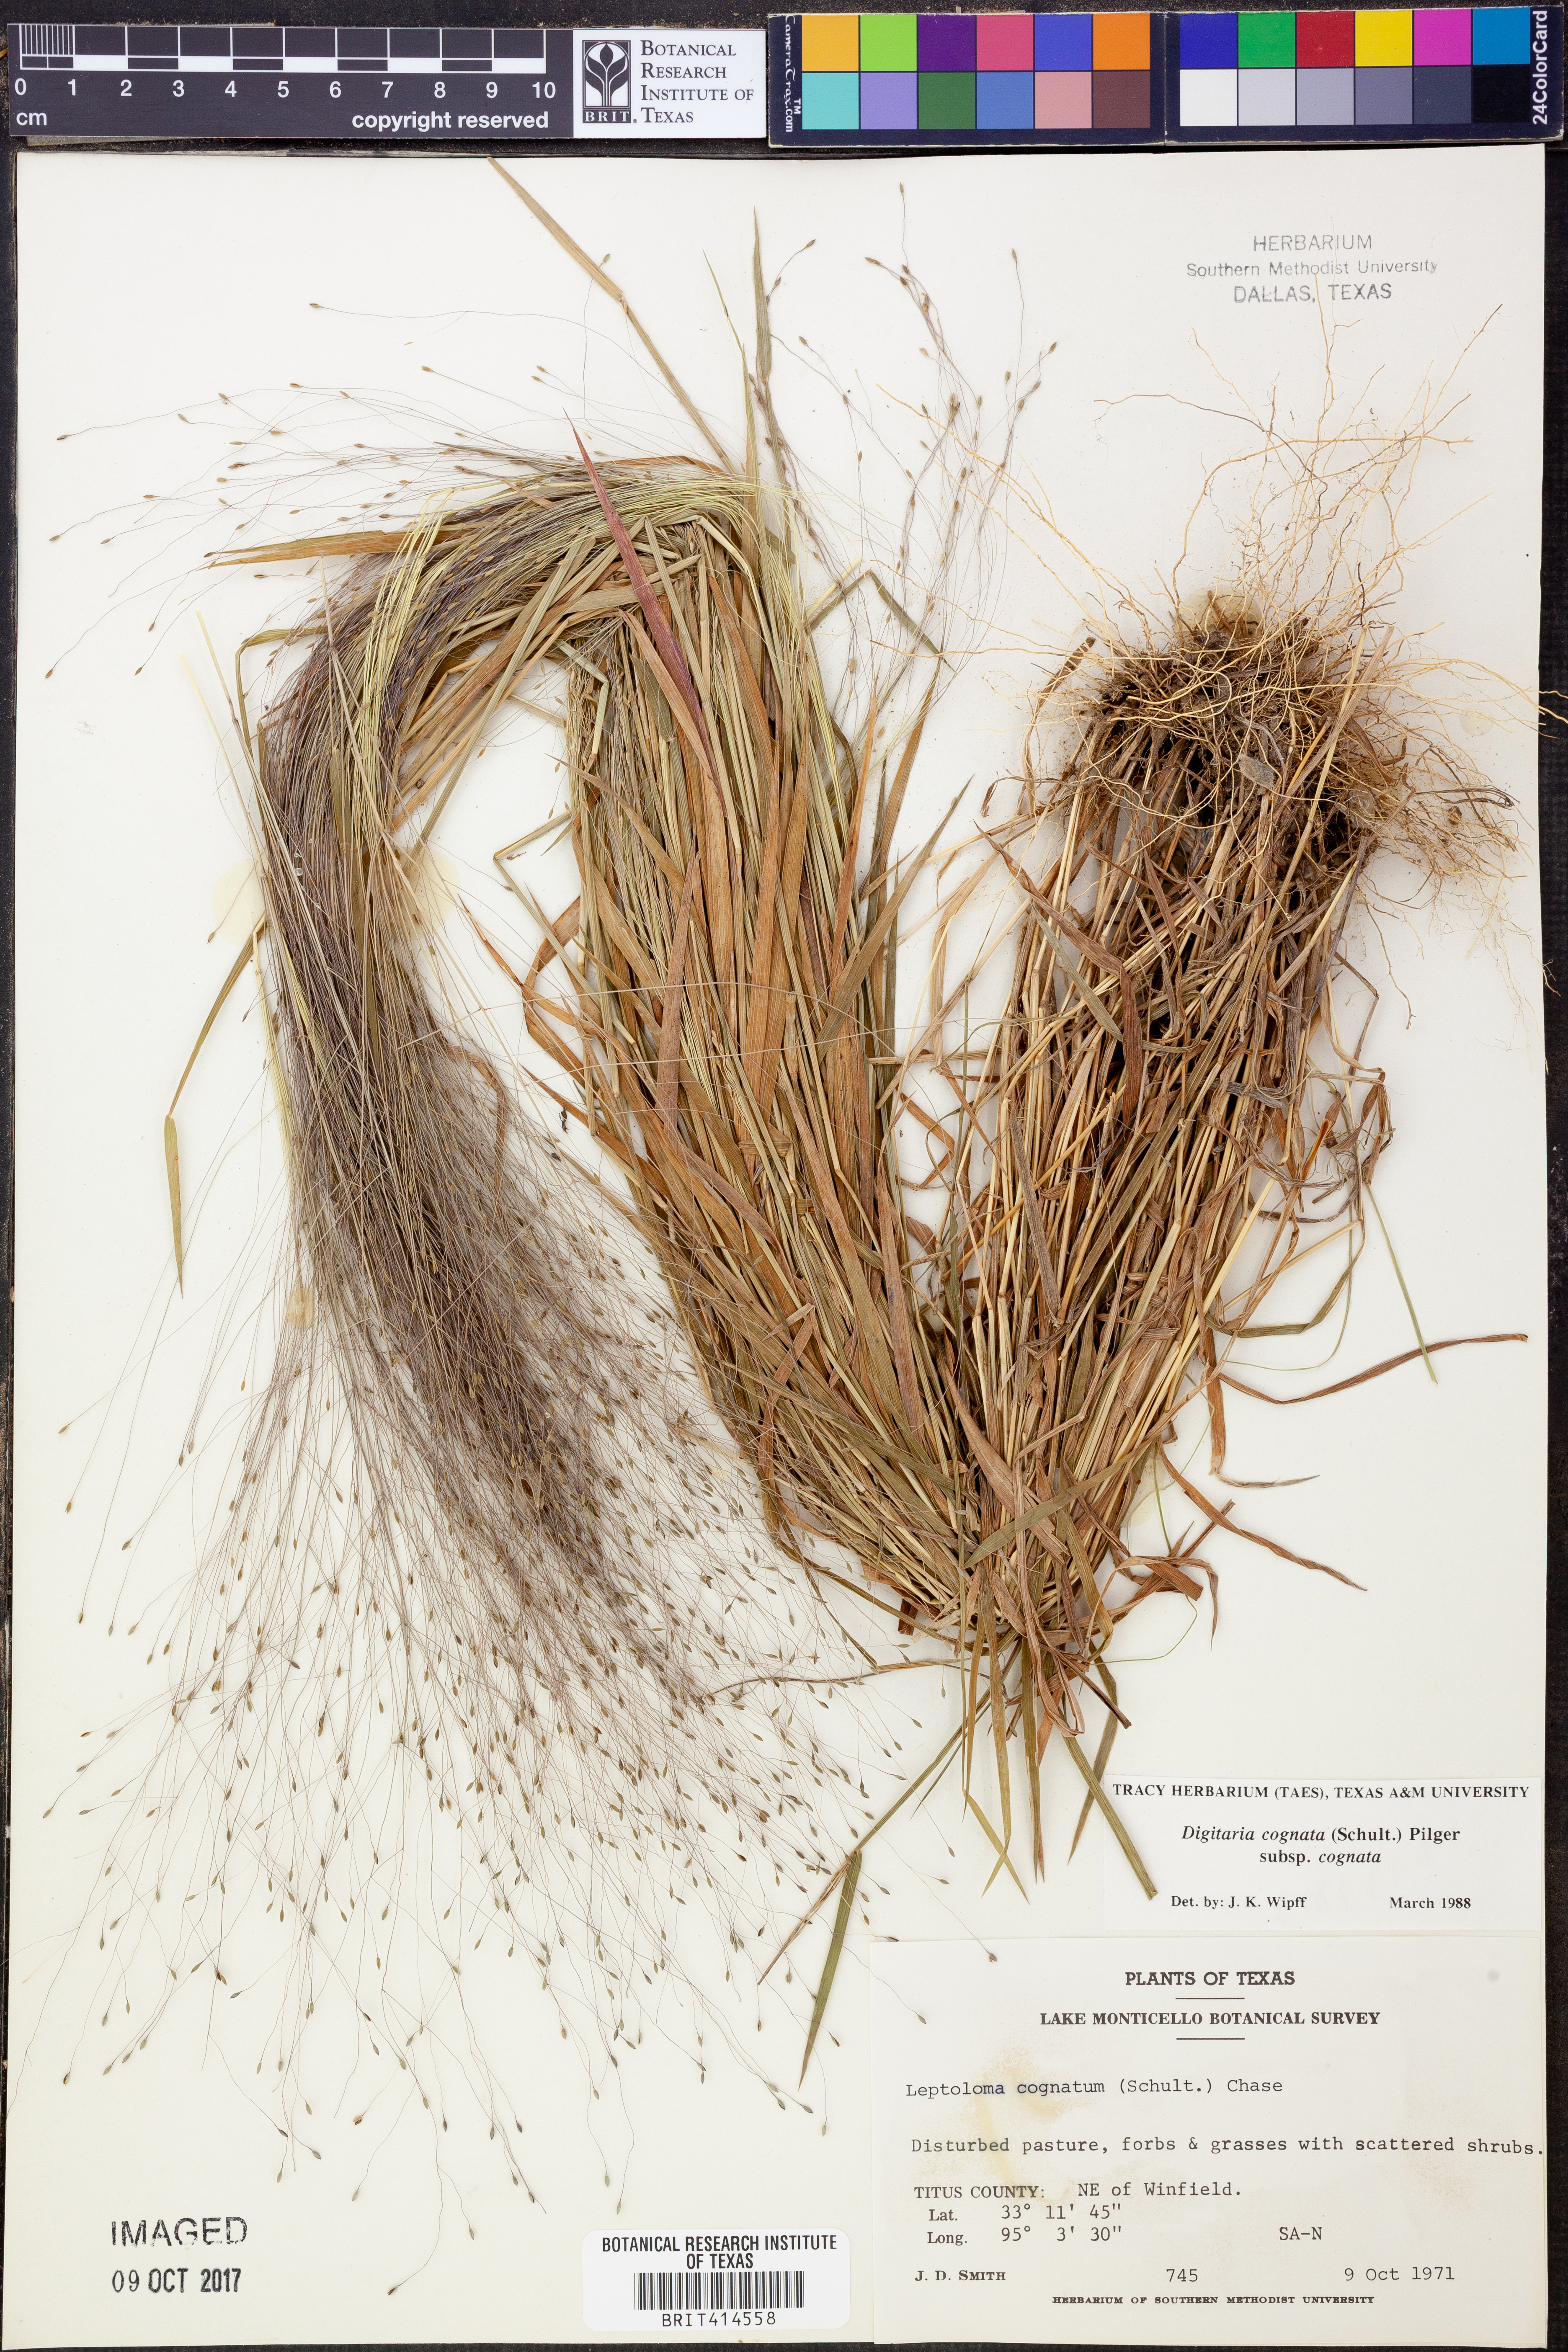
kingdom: Plantae
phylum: Tracheophyta
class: Liliopsida
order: Poales
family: Poaceae
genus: Digitaria
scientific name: Digitaria cognata
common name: Fall witchgrass
